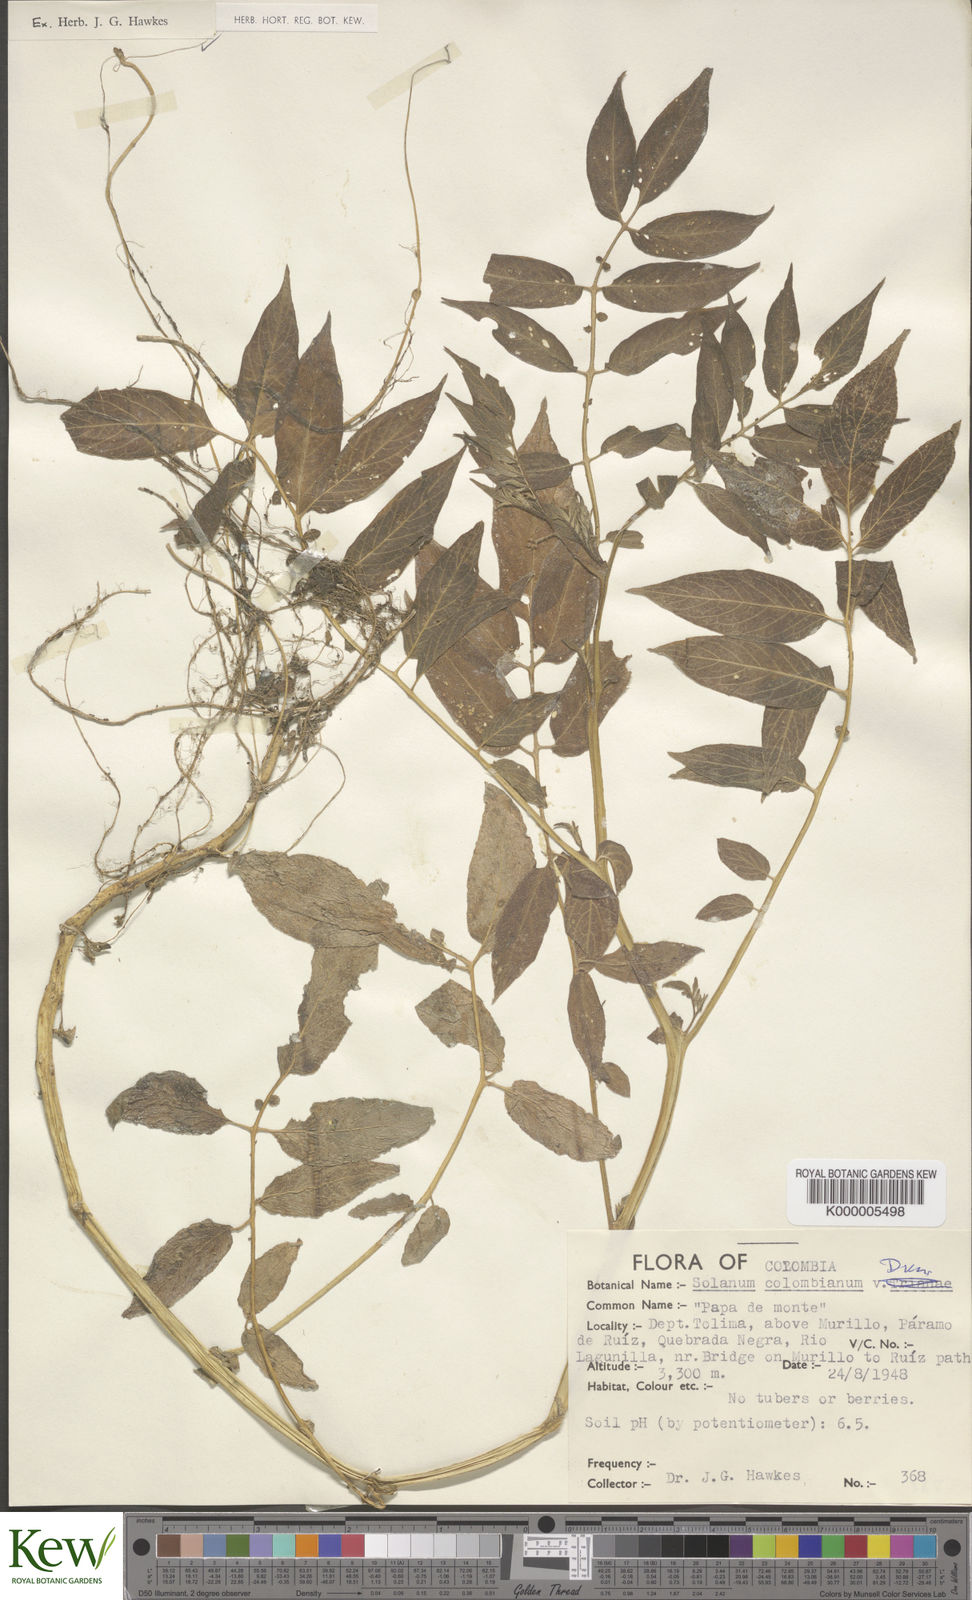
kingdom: Plantae
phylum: Tracheophyta
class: Magnoliopsida
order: Solanales
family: Solanaceae
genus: Solanum
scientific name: Solanum colombianum
